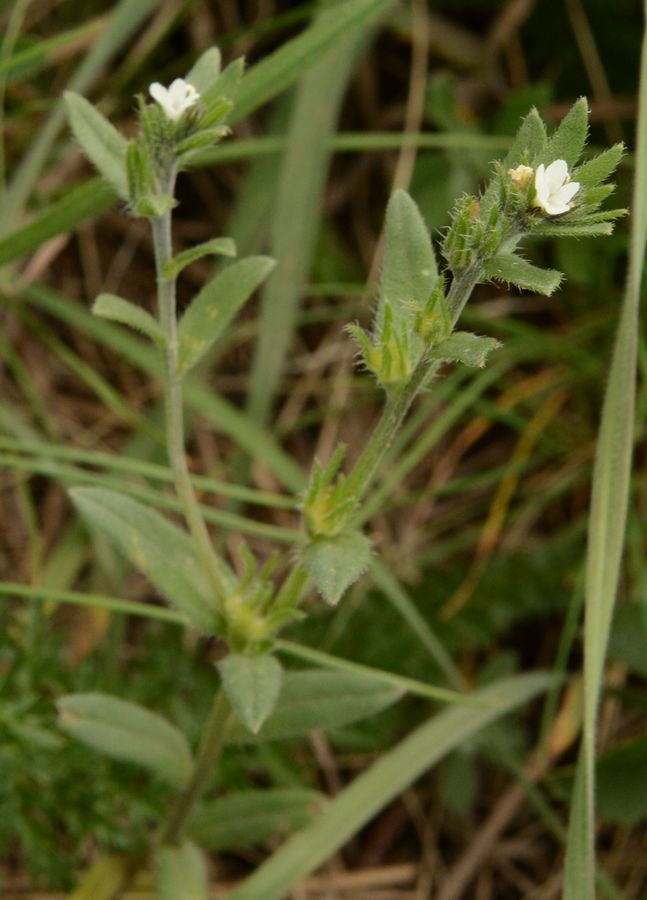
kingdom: Plantae
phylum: Tracheophyta
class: Magnoliopsida
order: Boraginales
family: Boraginaceae
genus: Buglossoides
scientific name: Buglossoides arvensis
